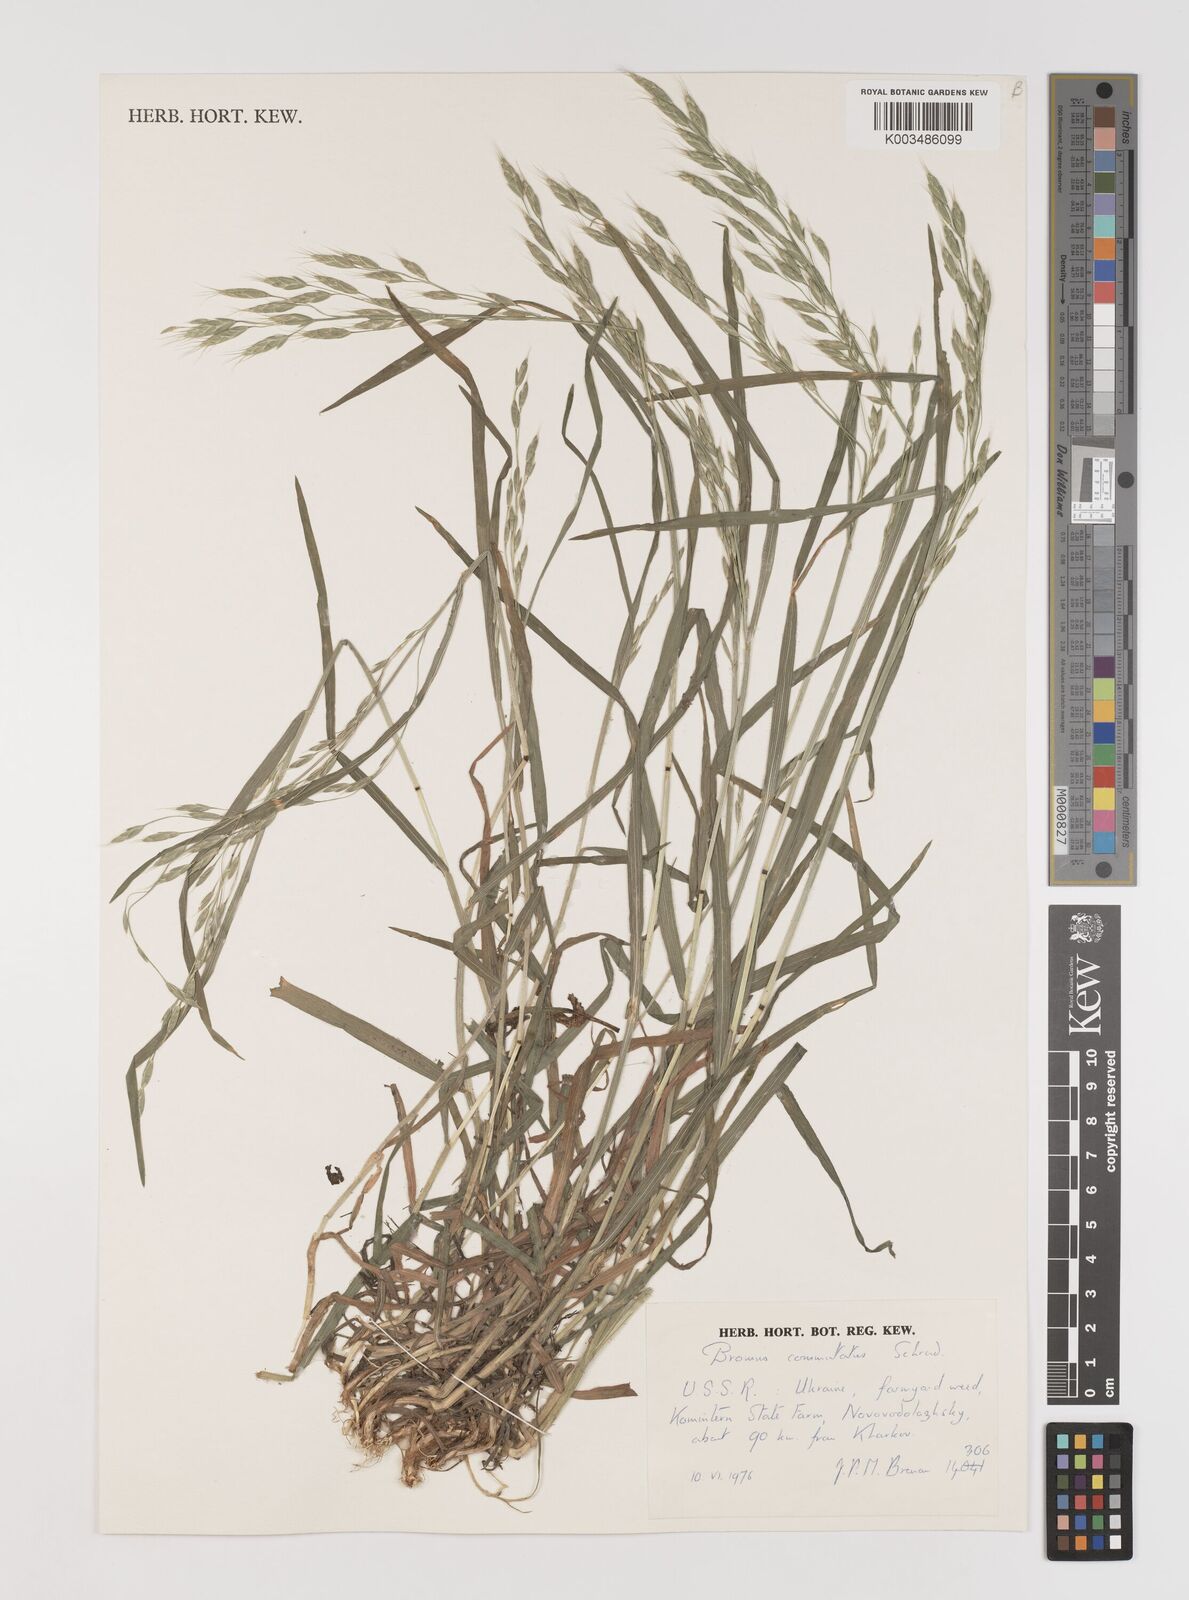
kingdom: Plantae
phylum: Tracheophyta
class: Liliopsida
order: Poales
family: Poaceae
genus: Bromus
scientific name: Bromus racemosus
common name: Bald brome
